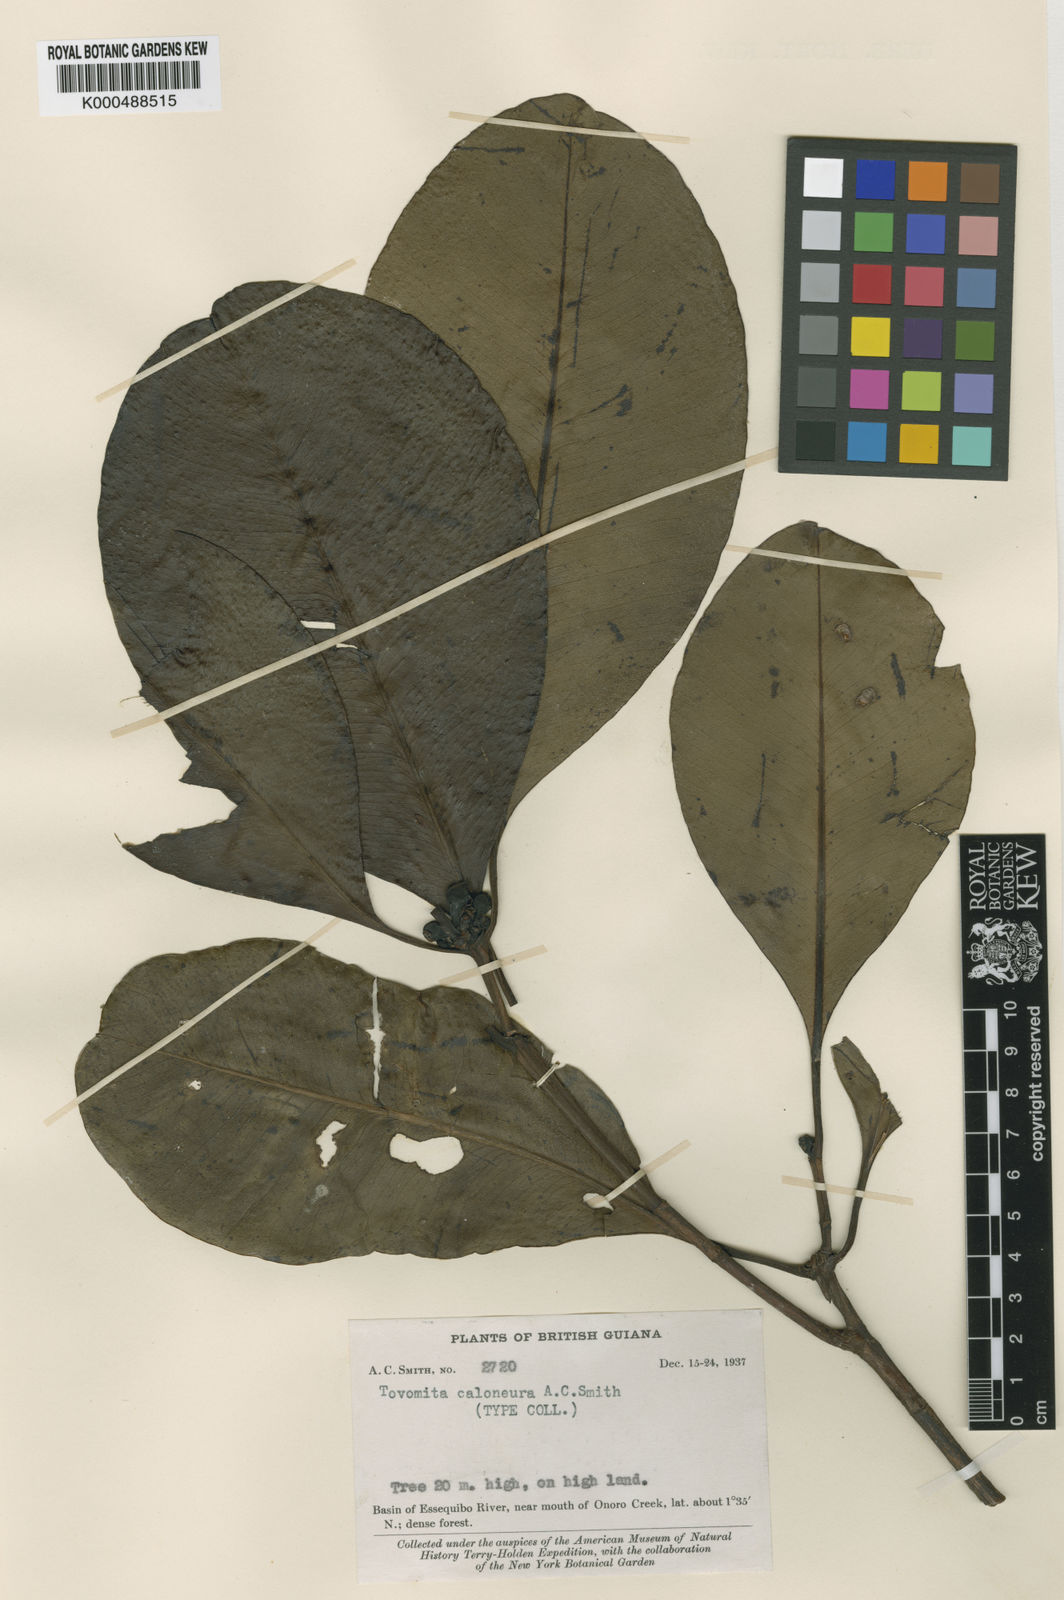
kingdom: Plantae
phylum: Tracheophyta
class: Magnoliopsida
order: Malpighiales
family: Clusiaceae
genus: Tovomita
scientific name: Tovomita caloneura
